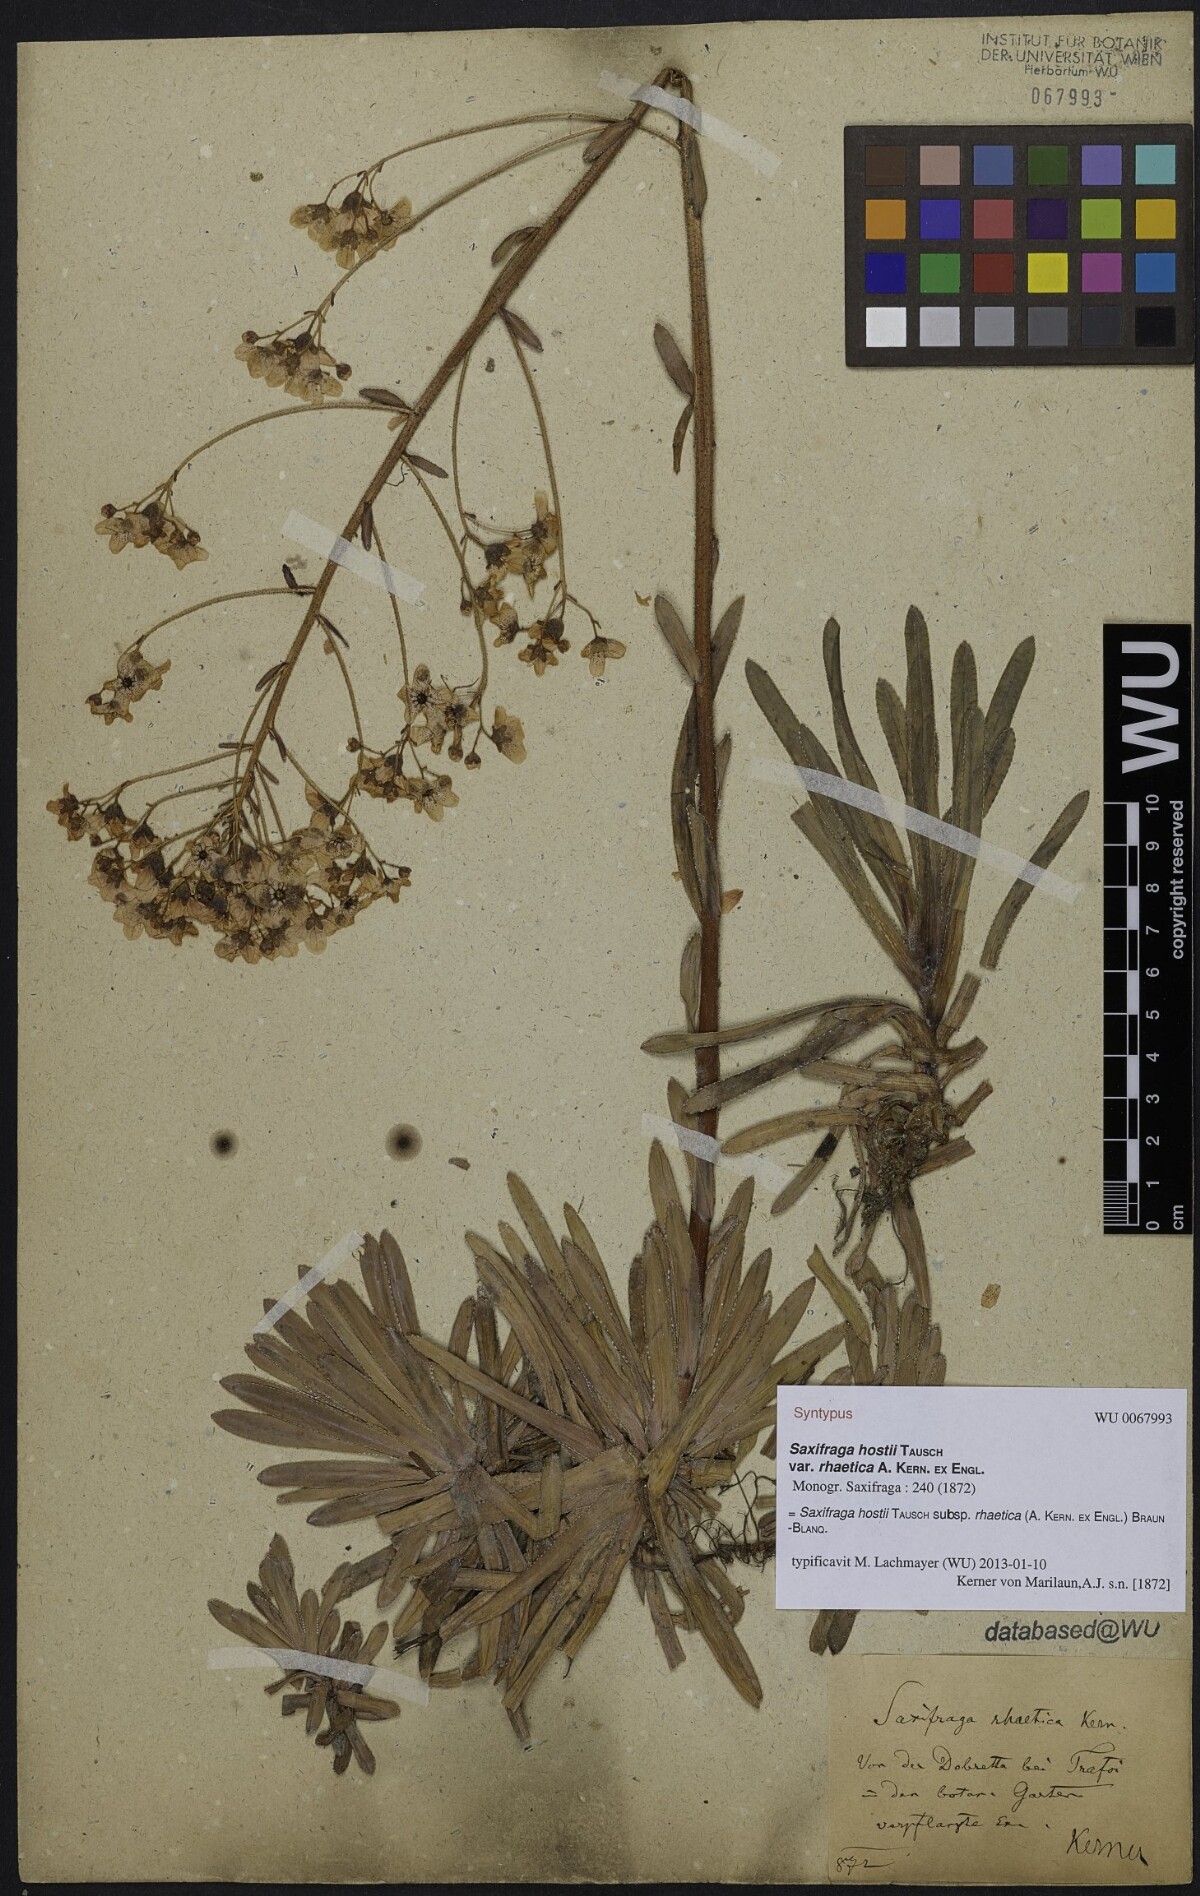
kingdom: Plantae
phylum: Tracheophyta
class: Magnoliopsida
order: Saxifragales
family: Saxifragaceae
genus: Saxifraga
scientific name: Saxifraga hostii
